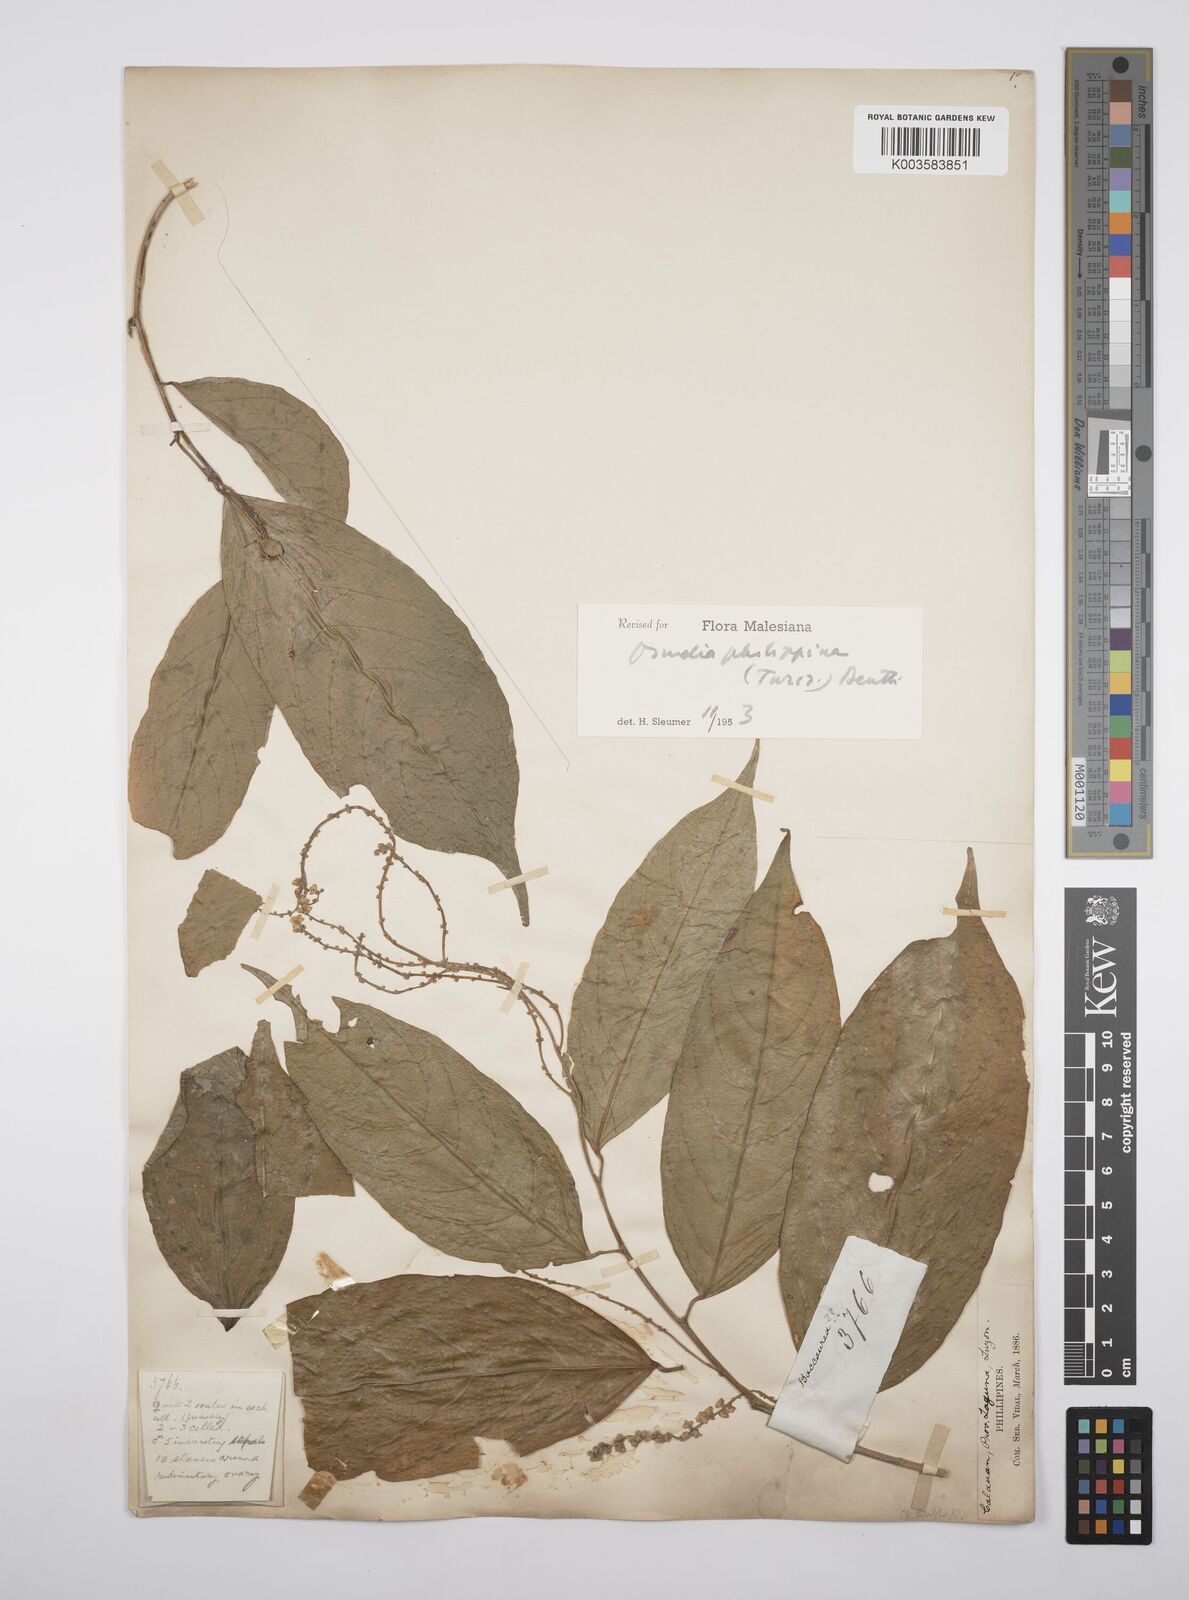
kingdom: Plantae
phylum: Tracheophyta
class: Magnoliopsida
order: Malpighiales
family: Salicaceae
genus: Osmelia
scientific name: Osmelia philippina
